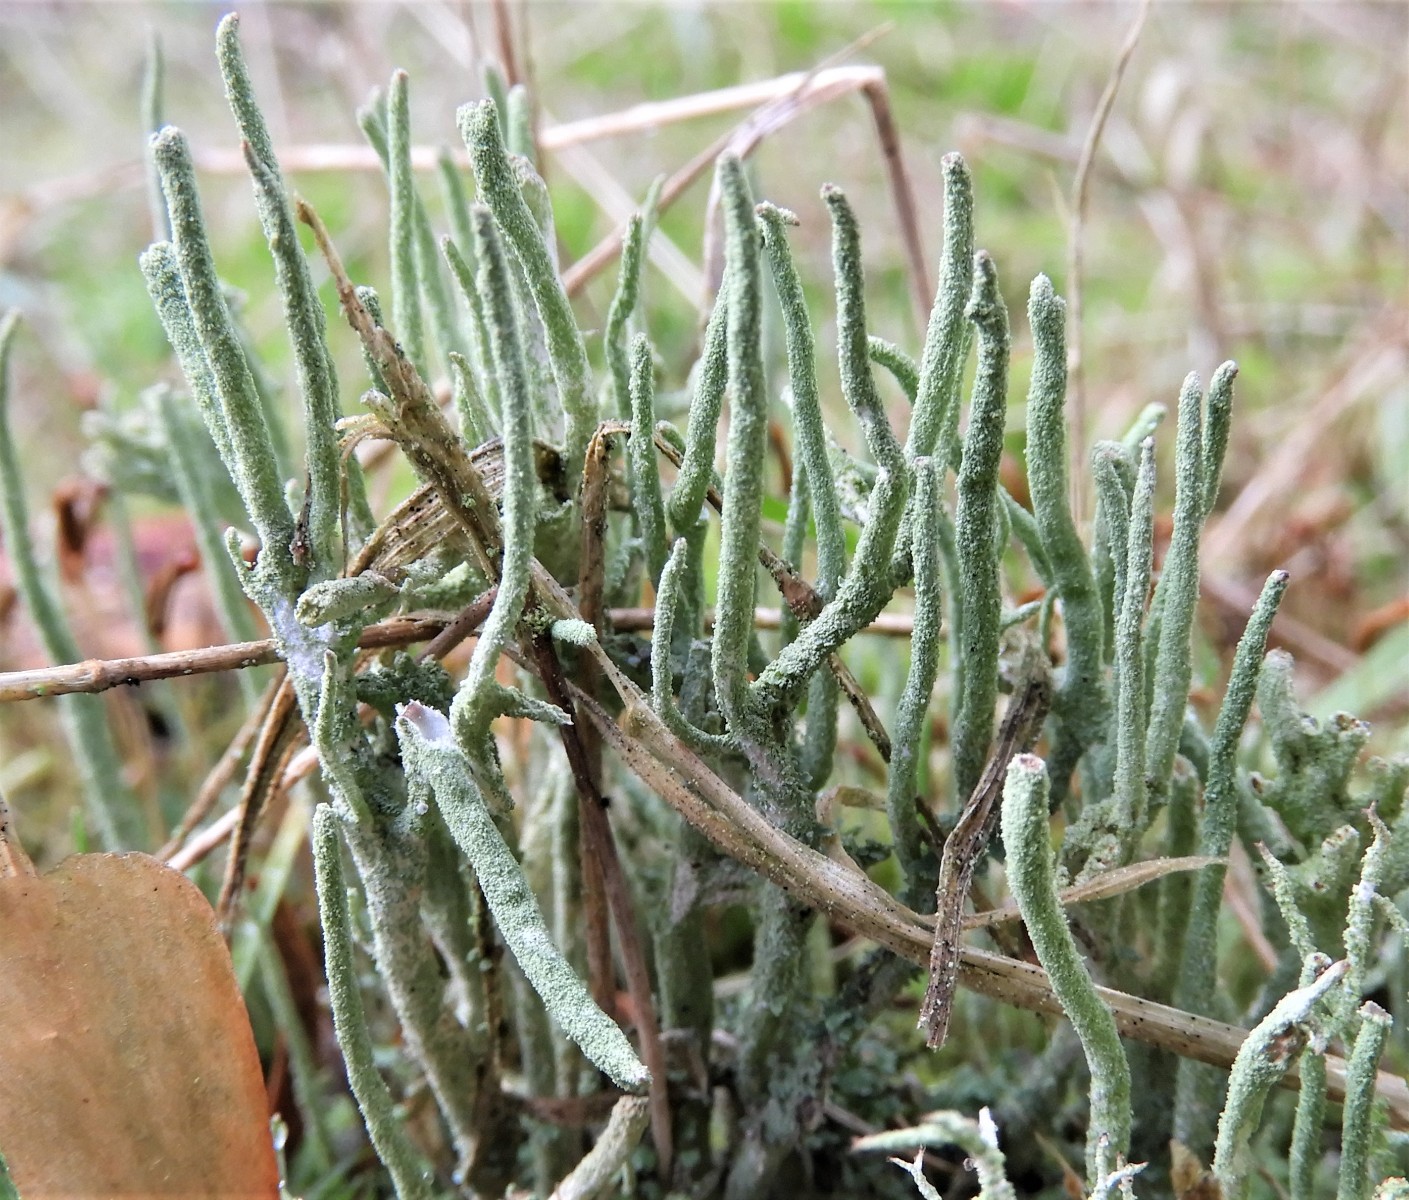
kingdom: Fungi
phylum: Ascomycota
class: Lecanoromycetes
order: Lecanorales
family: Cladoniaceae
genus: Cladonia
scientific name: Cladonia ochrochlora
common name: stød-bægerlav
